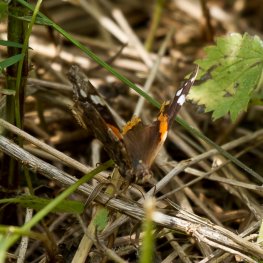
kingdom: Animalia
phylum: Arthropoda
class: Insecta
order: Lepidoptera
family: Nymphalidae
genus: Vanessa
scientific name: Vanessa atalanta
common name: Red Admiral
